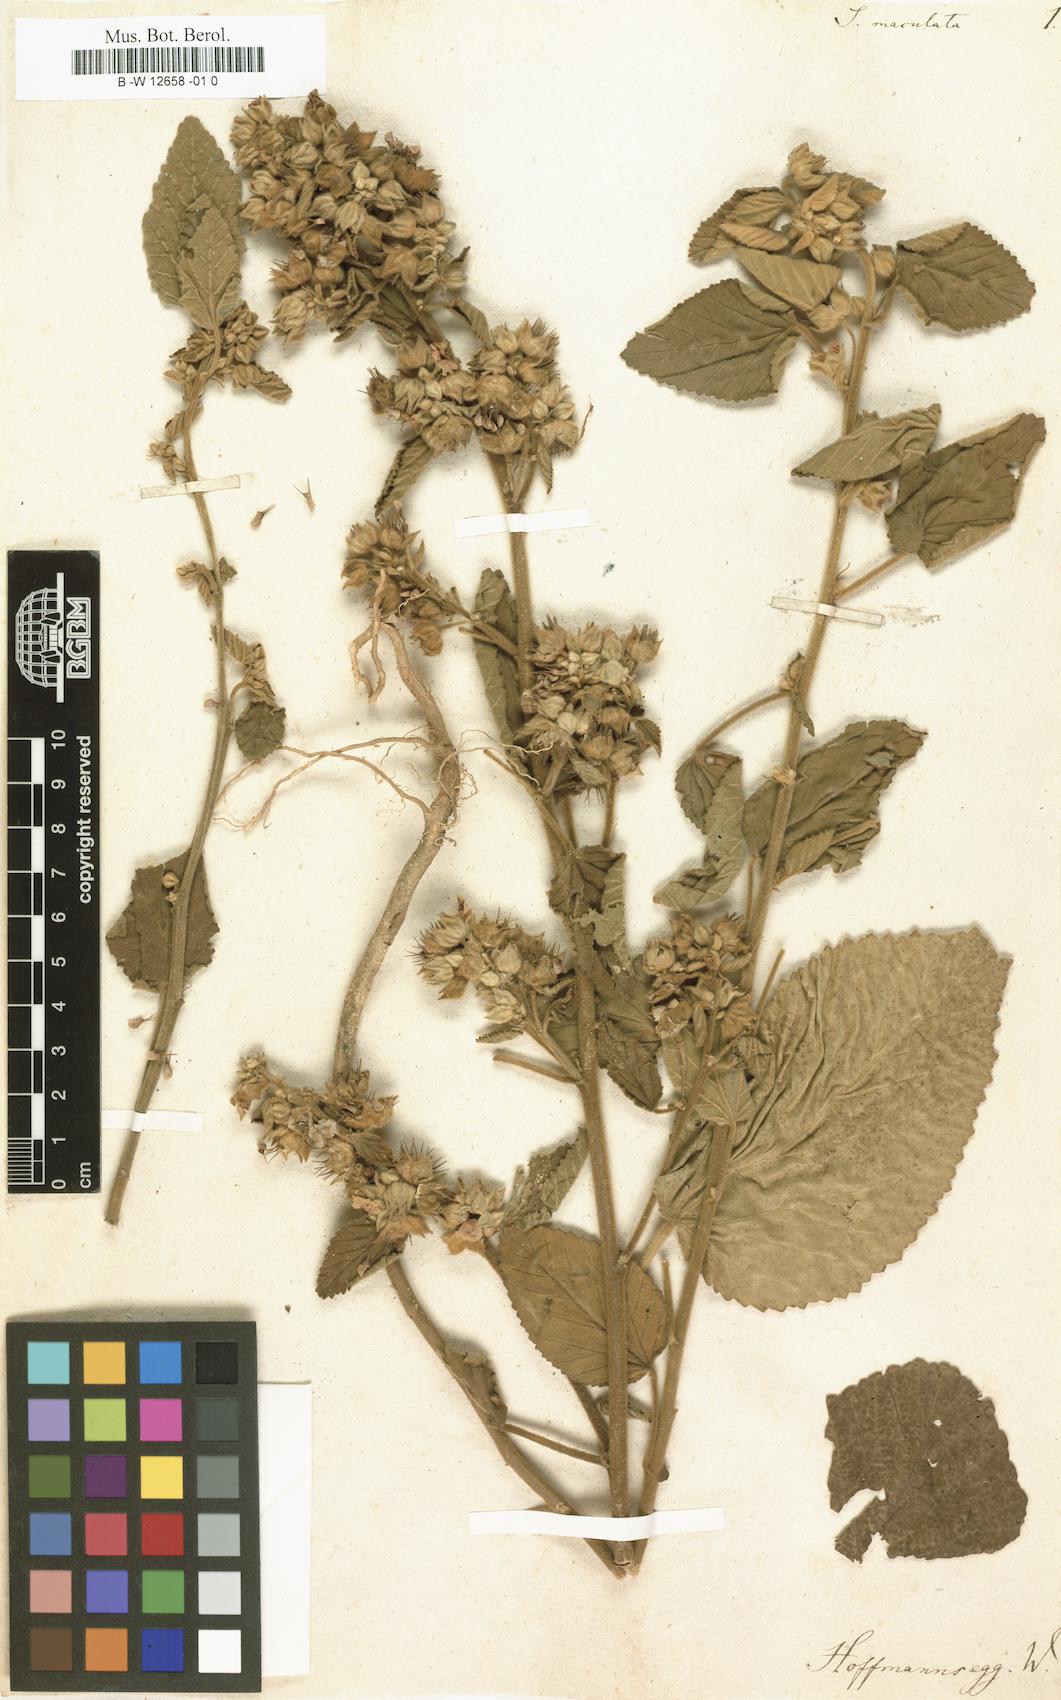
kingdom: Plantae
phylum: Tracheophyta
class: Magnoliopsida
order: Malvales
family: Malvaceae
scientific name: Malvaceae
